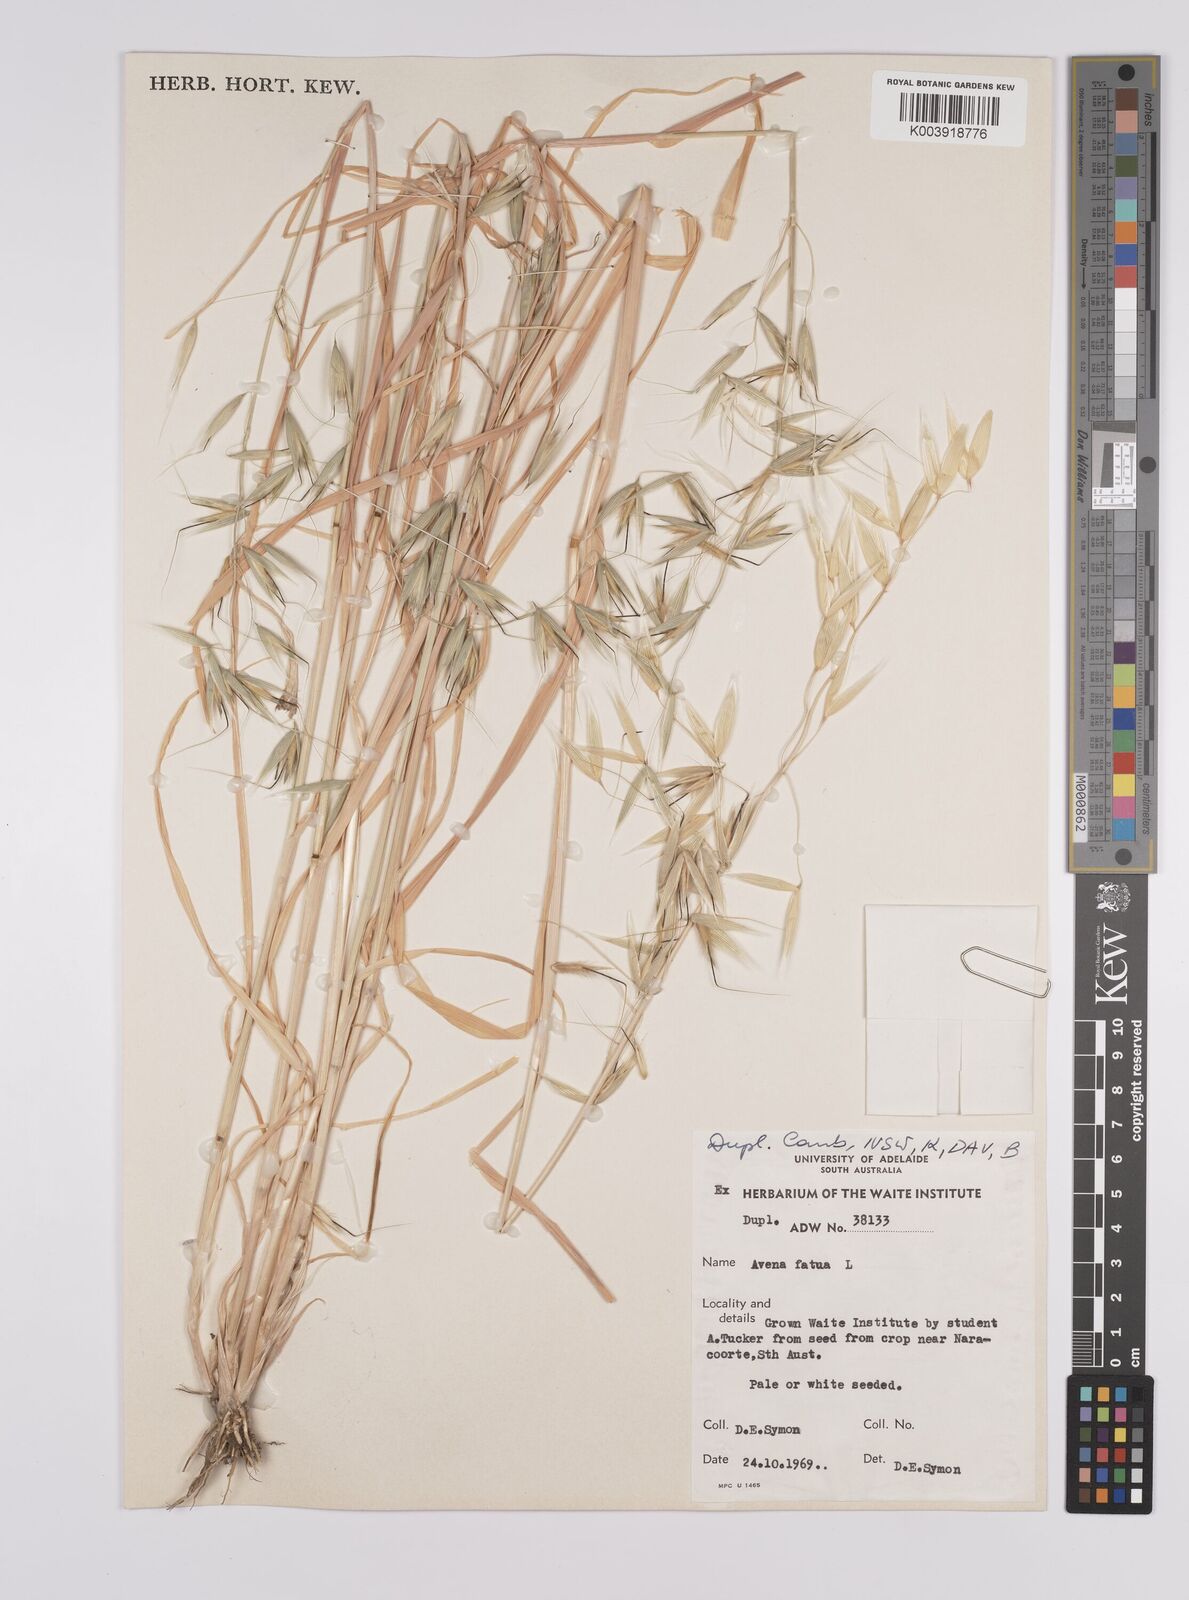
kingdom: Plantae
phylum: Tracheophyta
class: Liliopsida
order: Poales
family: Poaceae
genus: Avena
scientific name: Avena fatua
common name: Wild oat
